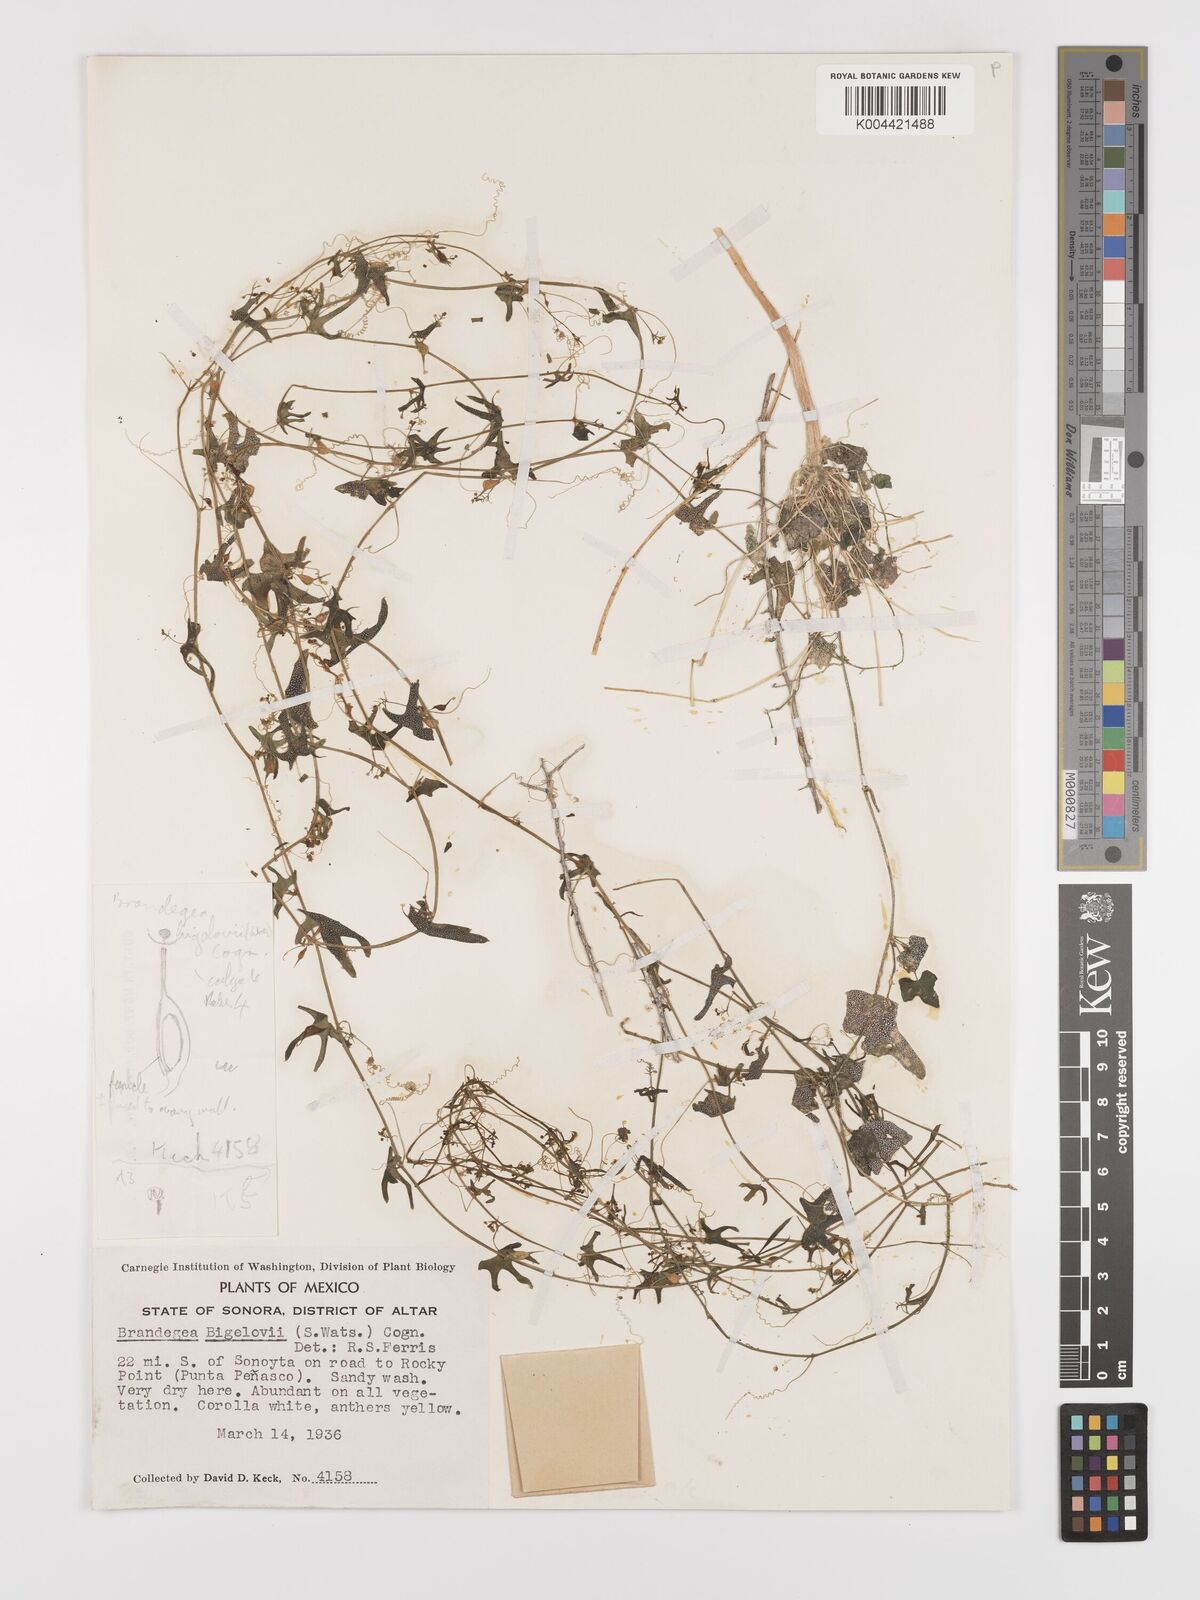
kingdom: Plantae
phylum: Tracheophyta
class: Magnoliopsida
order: Cucurbitales
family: Cucurbitaceae
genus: Echinopepon
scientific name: Echinopepon bigelovii
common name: Desert starvine
